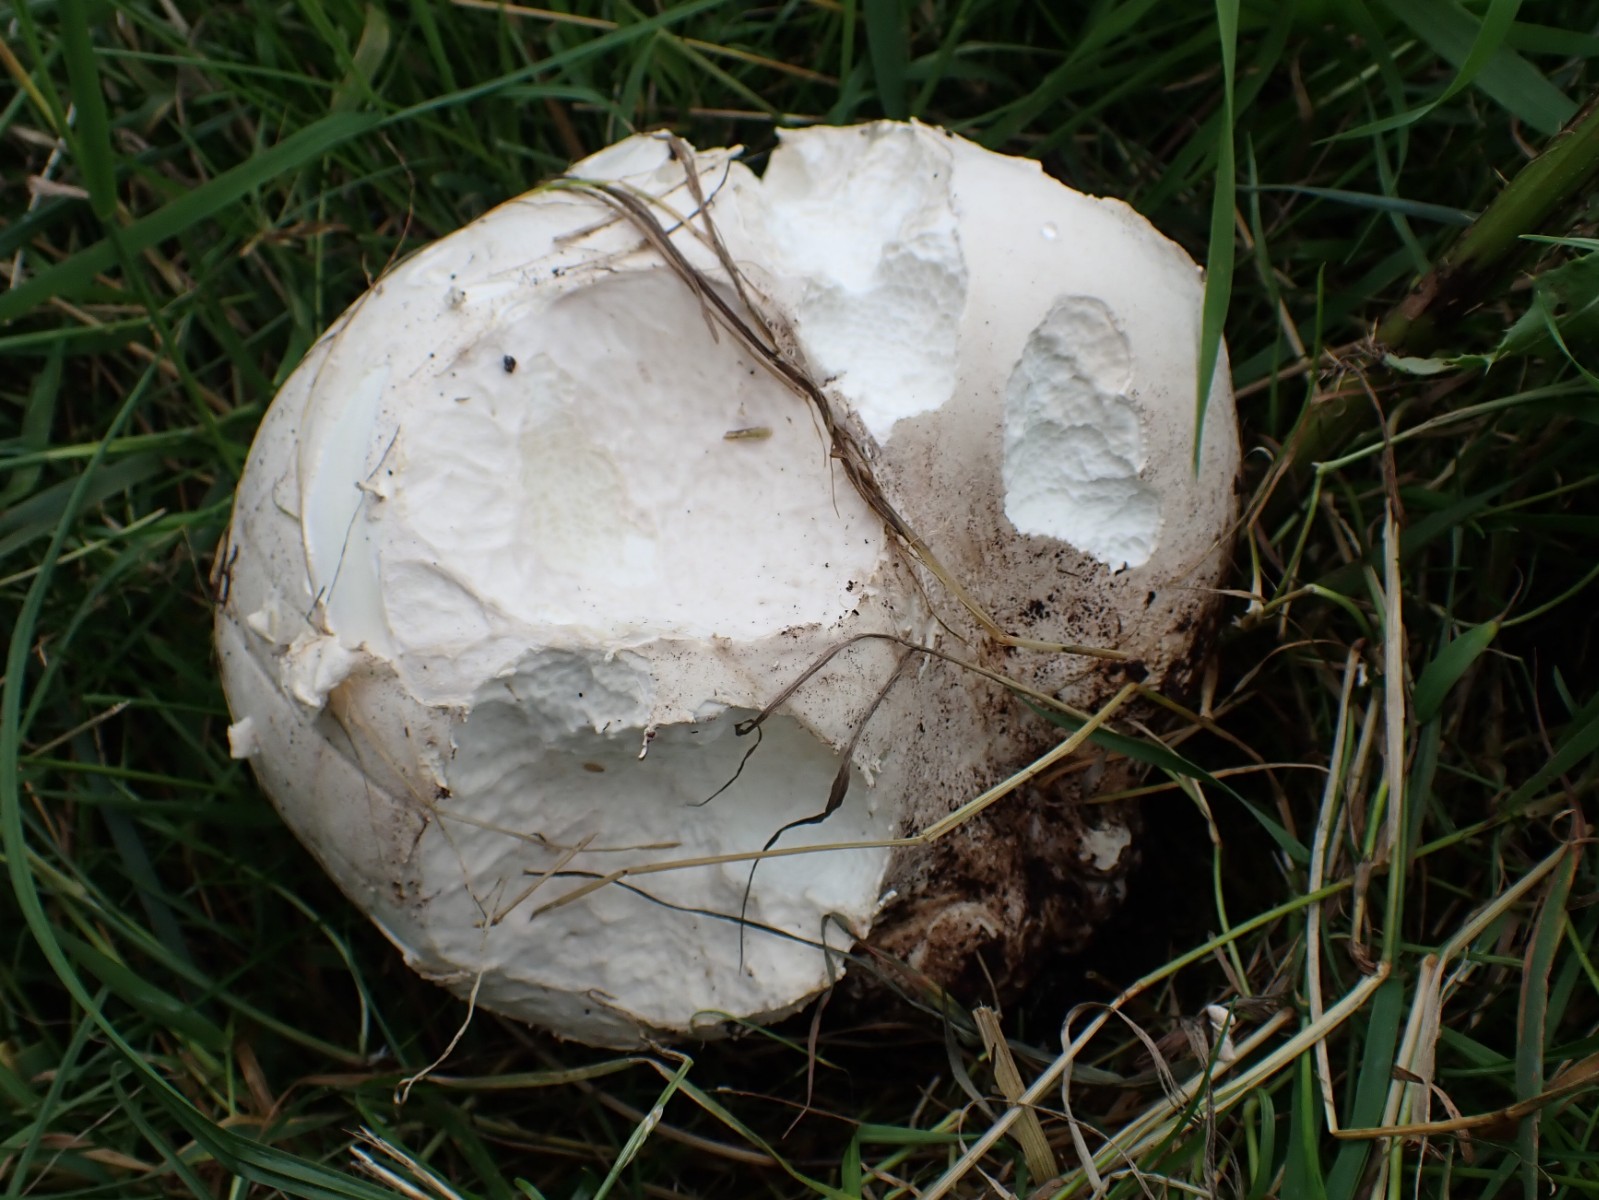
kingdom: Fungi
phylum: Basidiomycota
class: Agaricomycetes
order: Agaricales
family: Lycoperdaceae
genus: Calvatia
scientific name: Calvatia gigantea
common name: kæmpestøvbold
